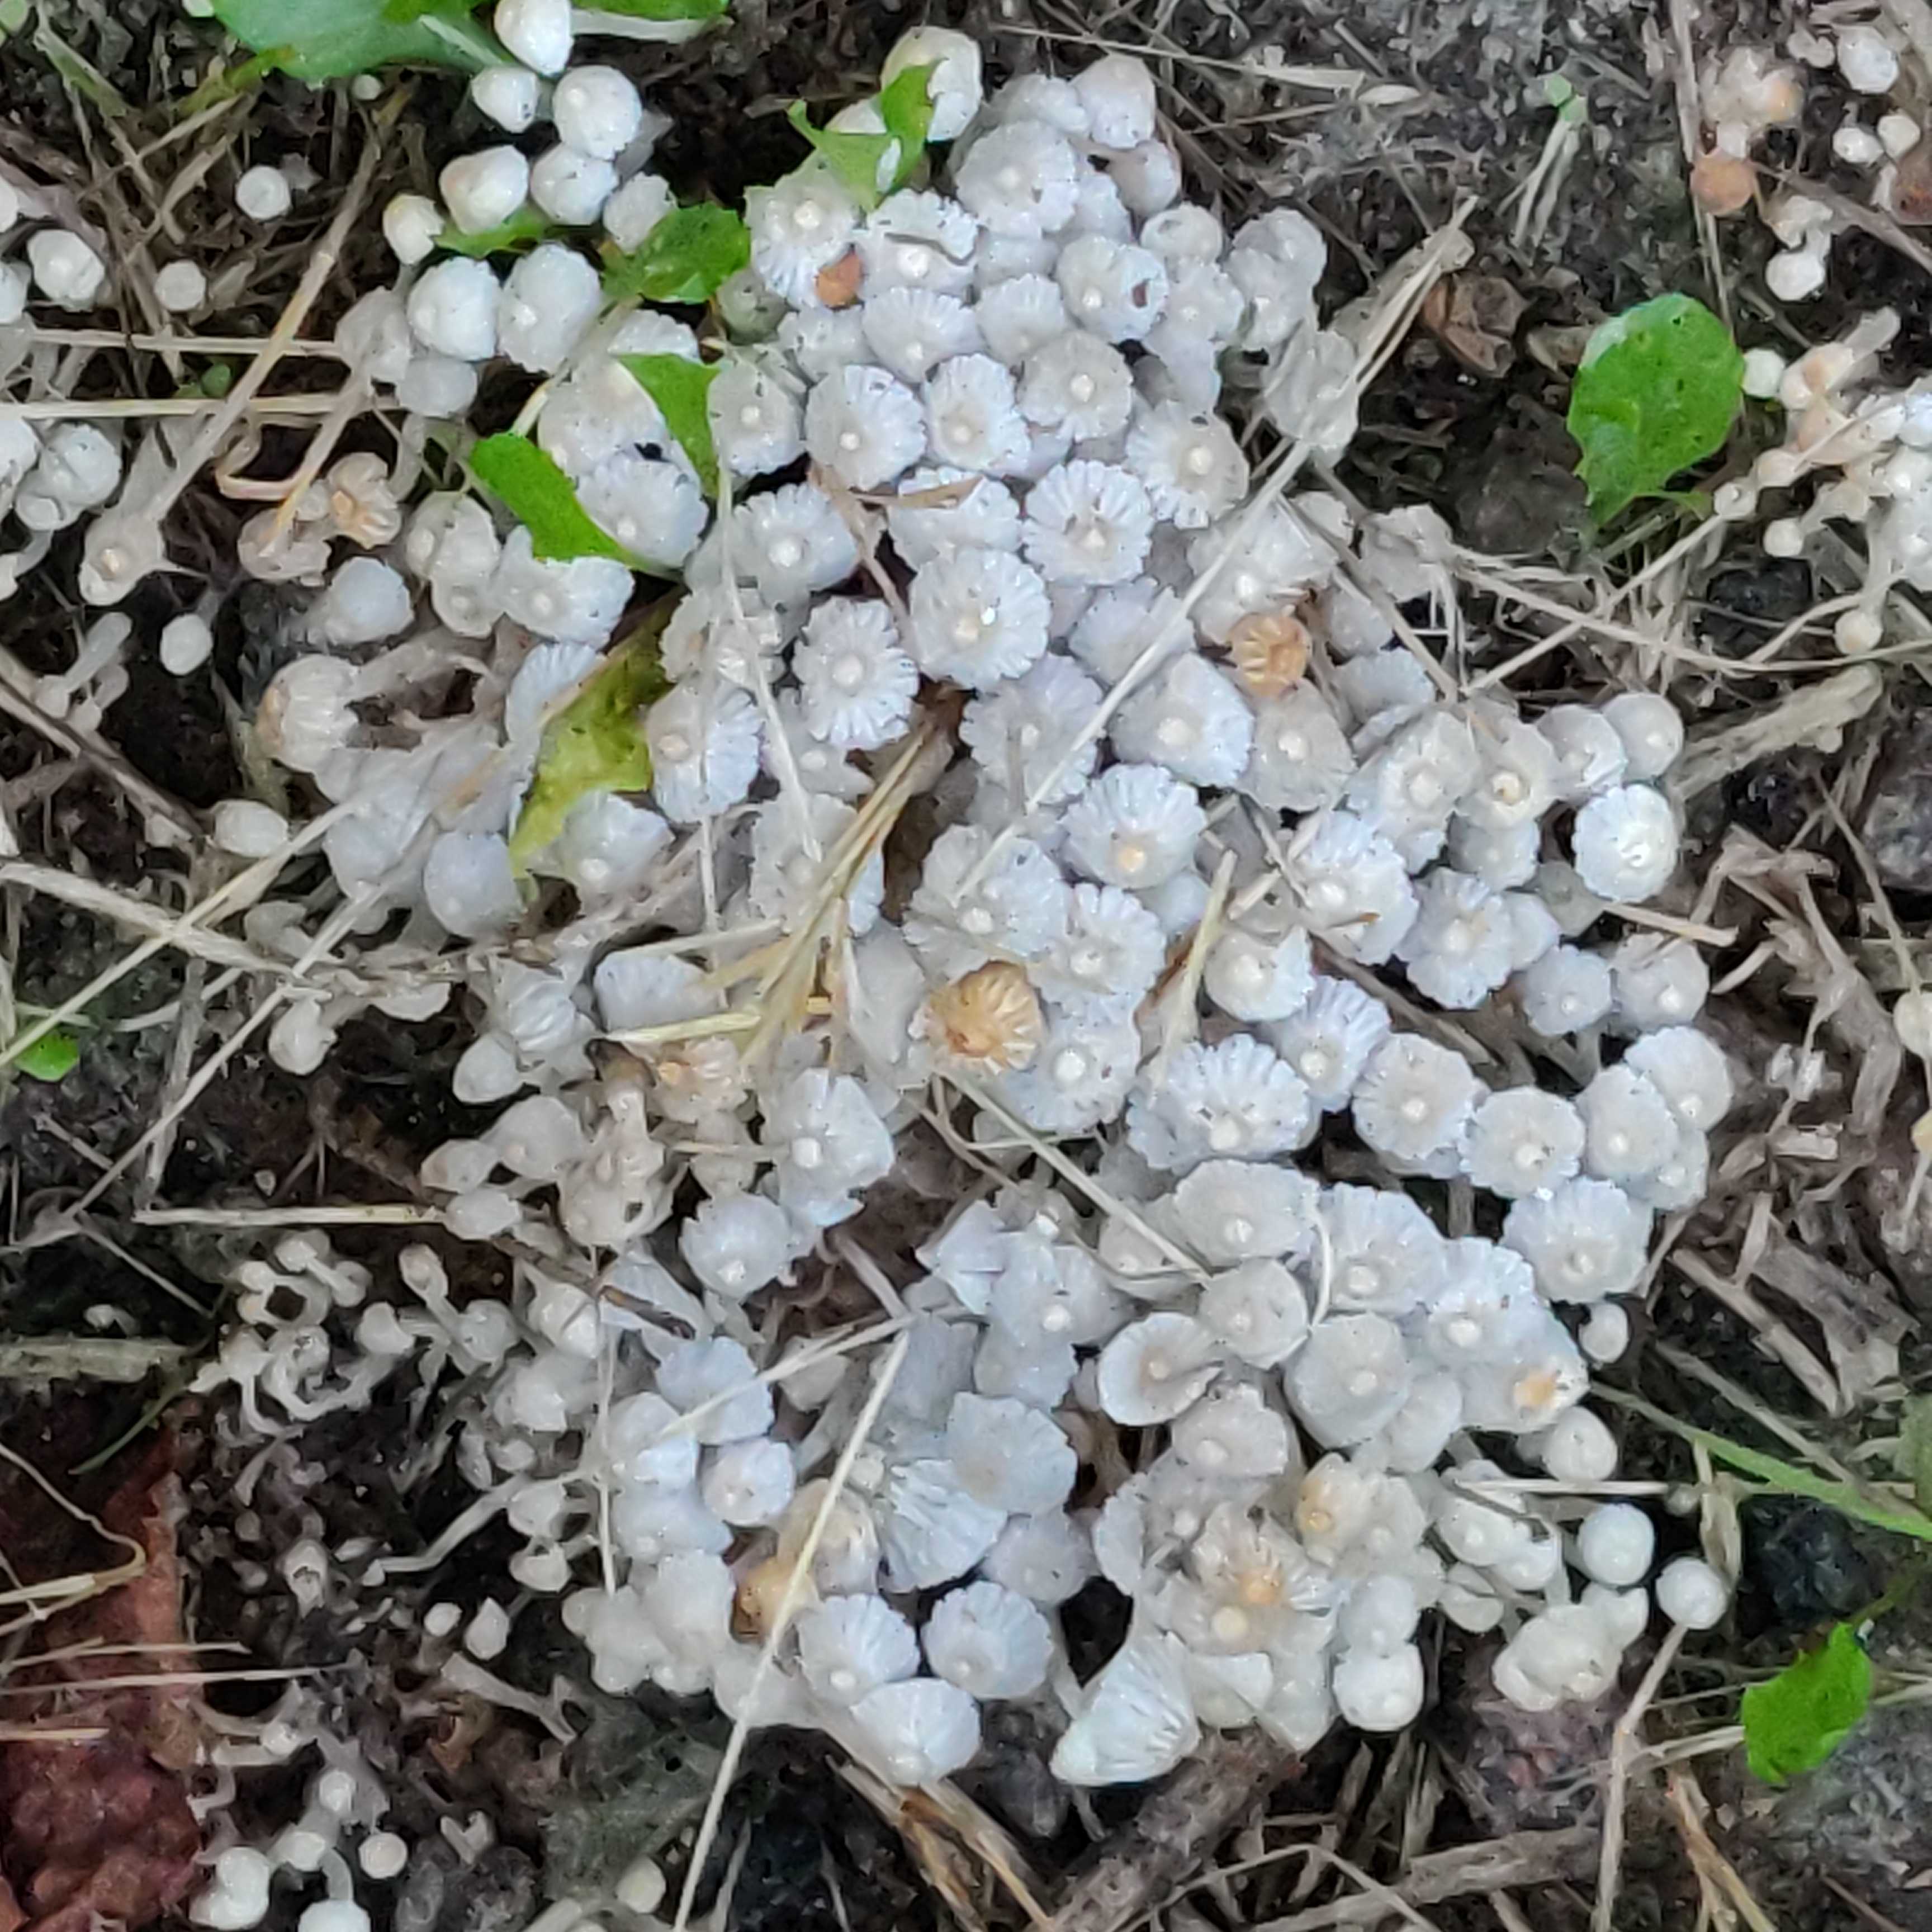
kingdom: Fungi
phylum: Basidiomycota
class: Agaricomycetes
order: Agaricales
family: Psathyrellaceae
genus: Coprinellus
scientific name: Coprinellus disseminatus
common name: bredsået blækhat
